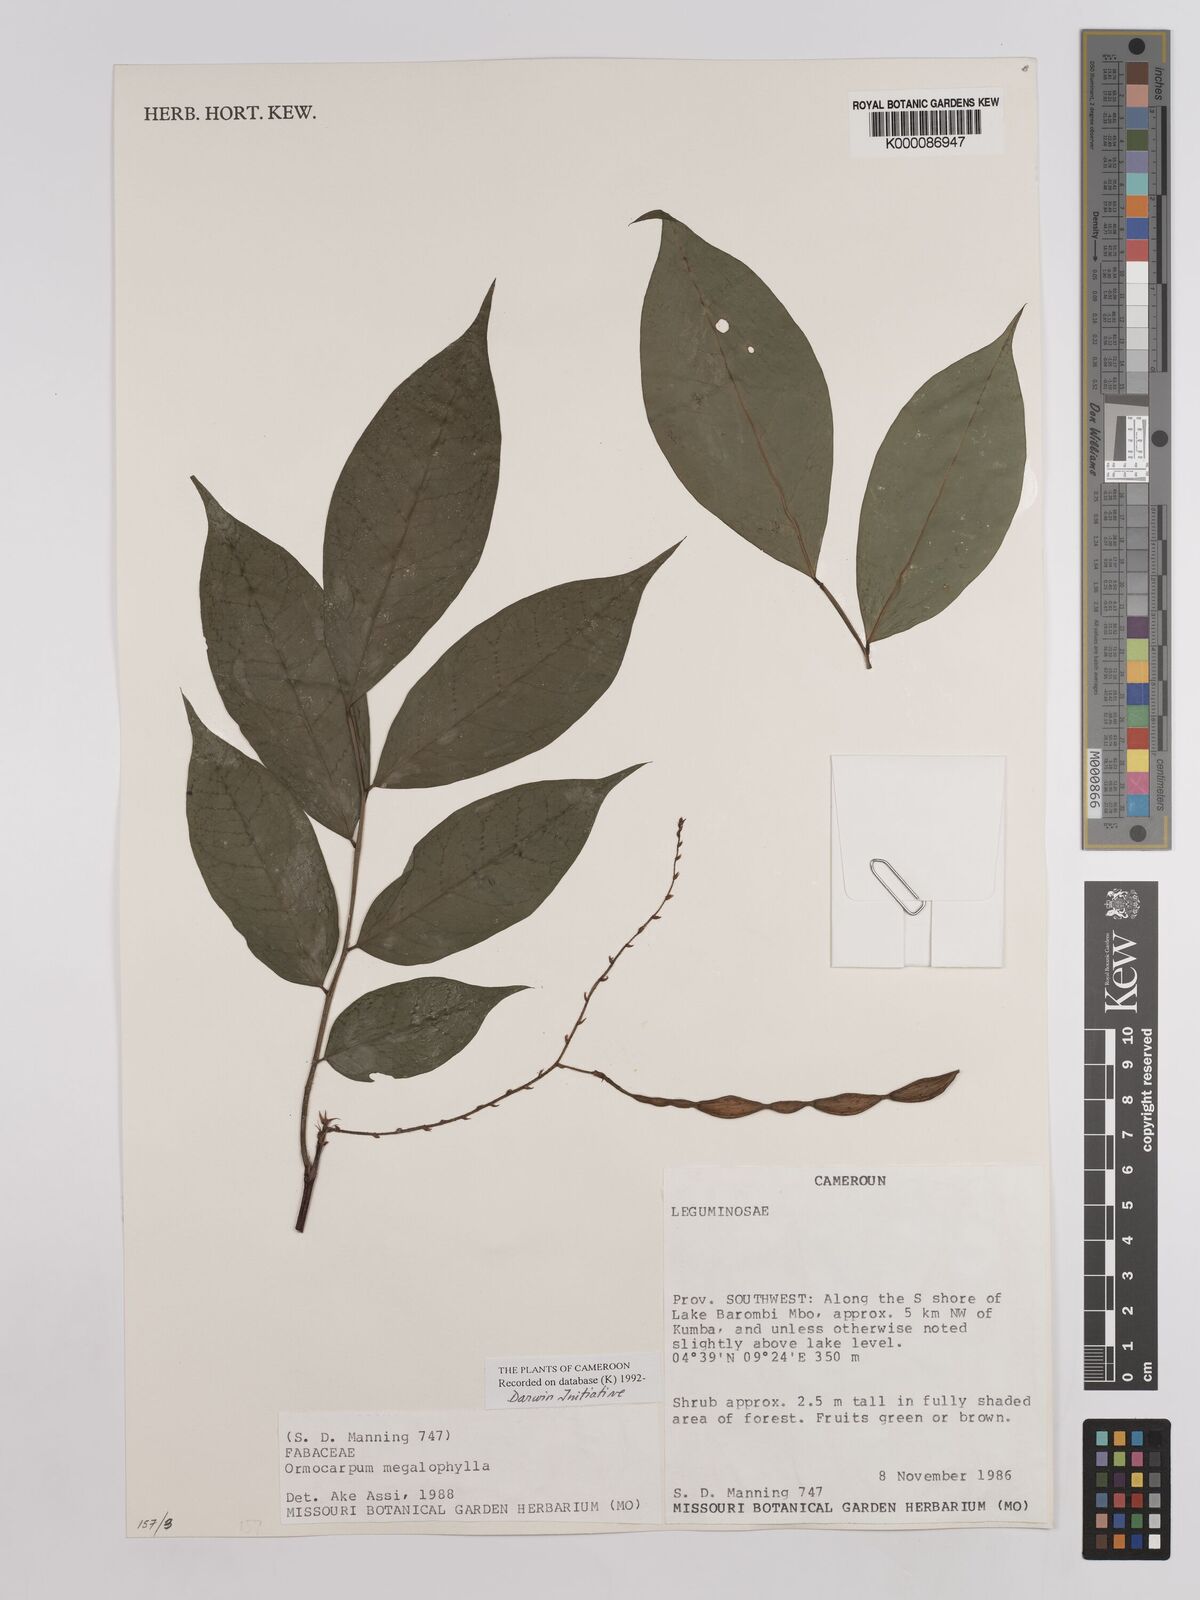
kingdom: Plantae
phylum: Tracheophyta
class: Magnoliopsida
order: Fabales
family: Fabaceae
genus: Ormocarpum
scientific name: Ormocarpum megalophyllum
